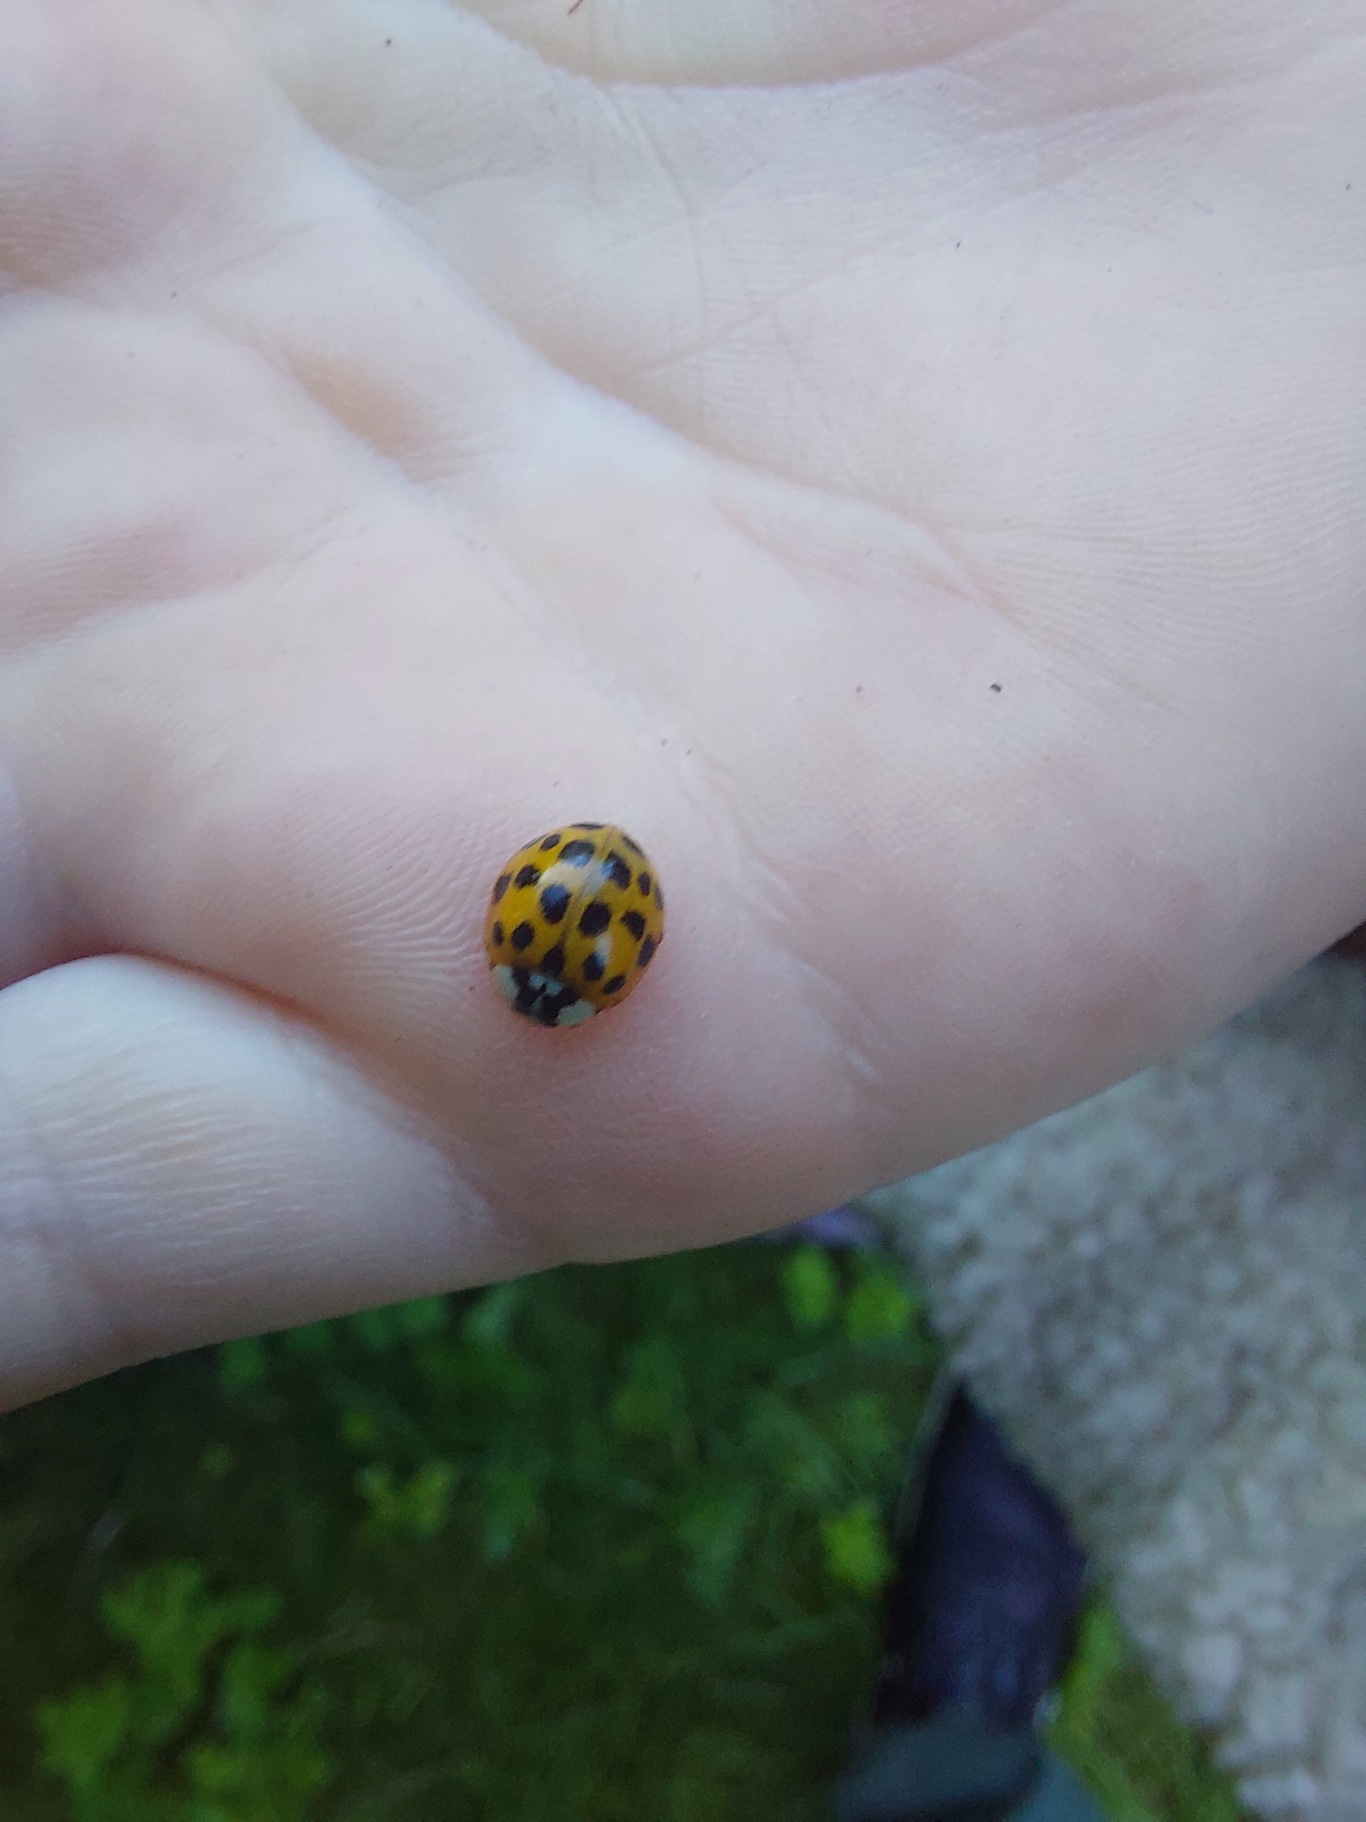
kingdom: Animalia
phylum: Arthropoda
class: Insecta
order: Coleoptera
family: Coccinellidae
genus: Harmonia
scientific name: Harmonia axyridis
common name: Harlekinmariehøne
